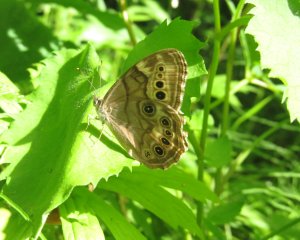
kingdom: Animalia
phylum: Arthropoda
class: Insecta
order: Lepidoptera
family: Nymphalidae
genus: Lethe
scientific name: Lethe anthedon
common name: Northern Pearly-Eye
